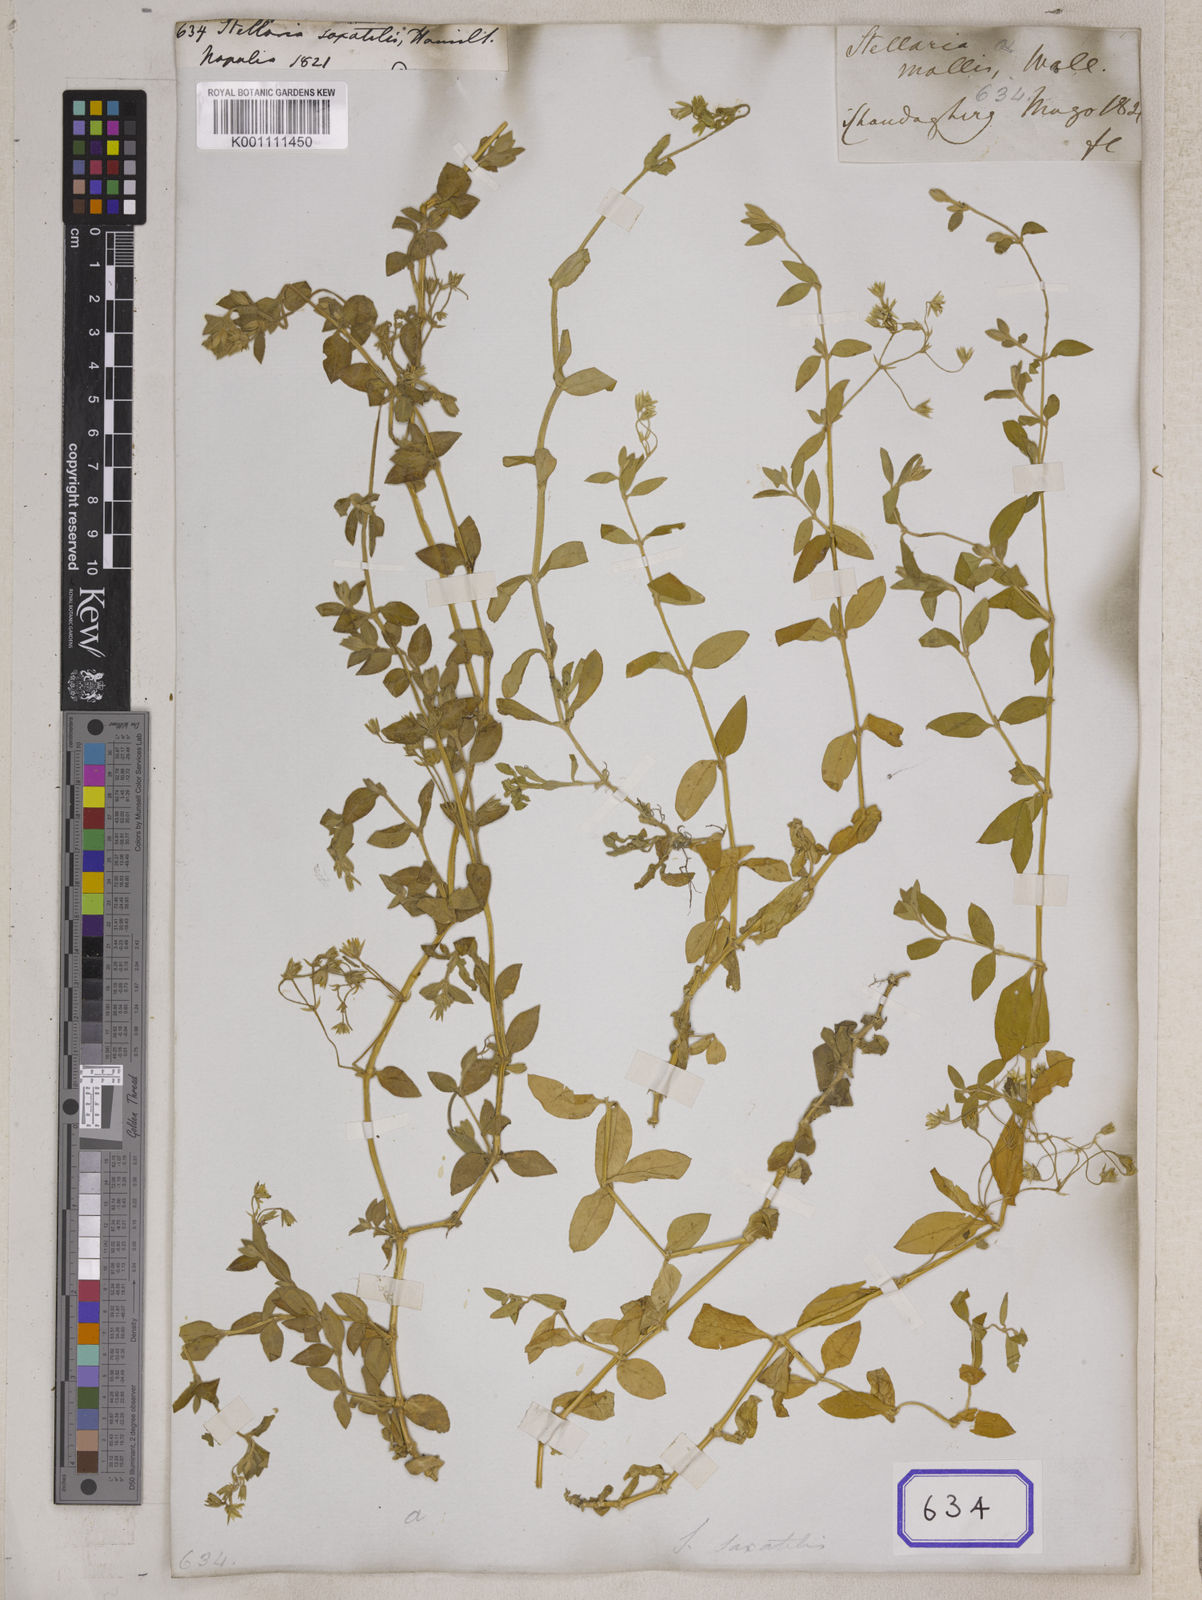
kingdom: Plantae
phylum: Tracheophyta
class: Magnoliopsida
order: Caryophyllales
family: Caryophyllaceae
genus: Stellaria
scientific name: Stellaria
